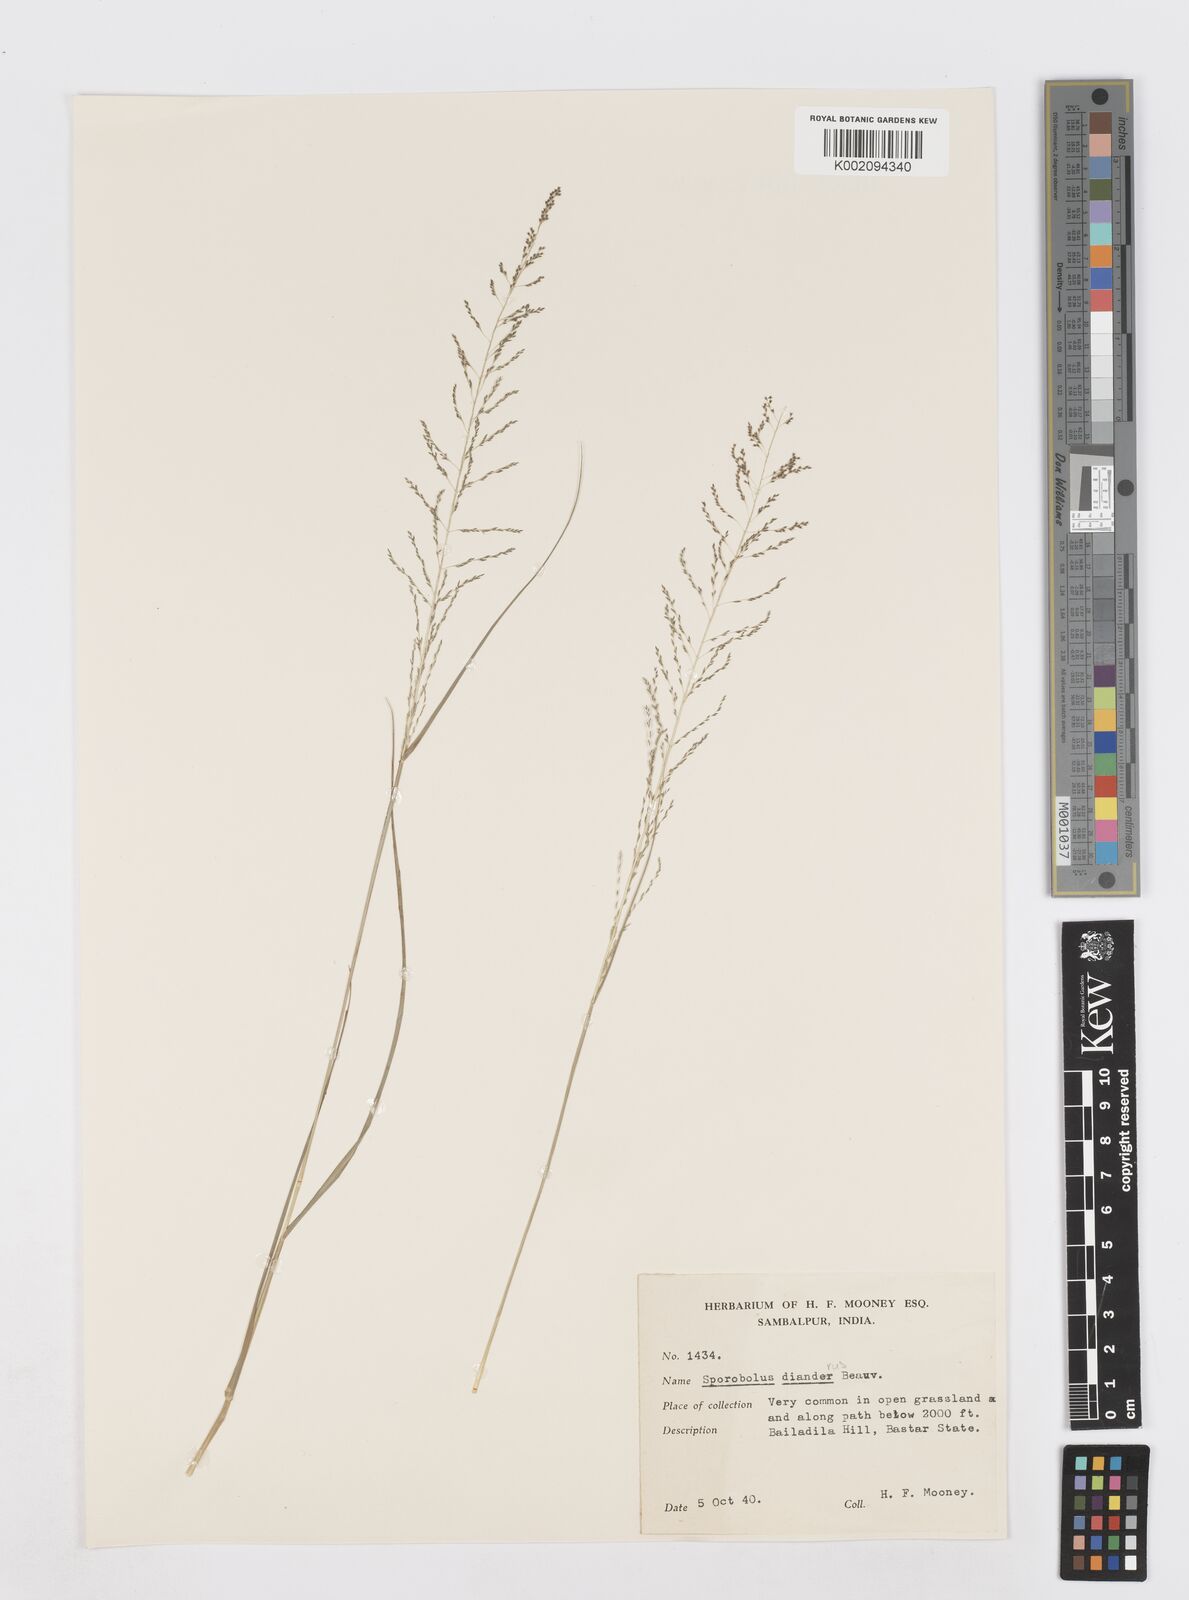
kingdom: Plantae
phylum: Tracheophyta
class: Liliopsida
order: Poales
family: Poaceae
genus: Sporobolus
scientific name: Sporobolus diandrus
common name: Tussock dropseed
